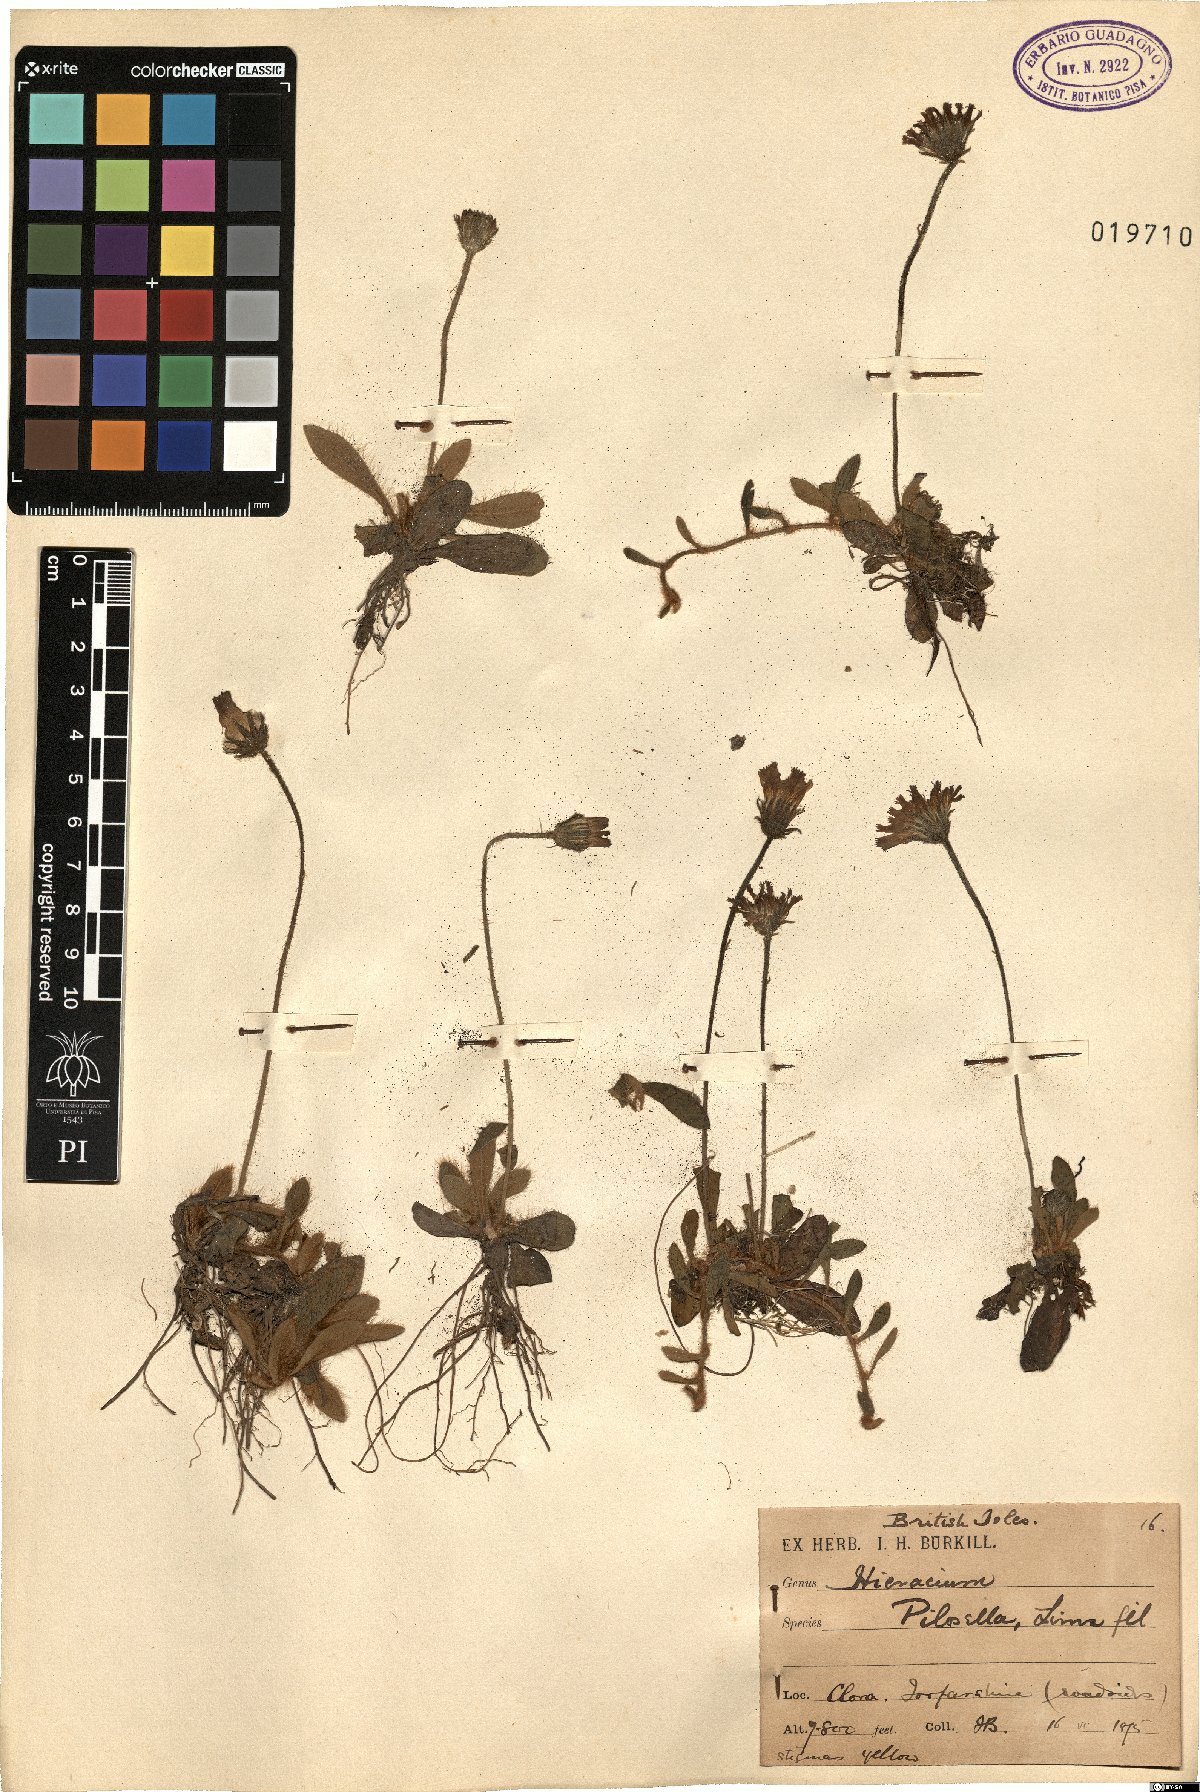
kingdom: Plantae
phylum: Tracheophyta
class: Magnoliopsida
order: Asterales
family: Asteraceae
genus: Pilosella
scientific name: Pilosella officinarum
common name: Mouse-ear hawkweed
